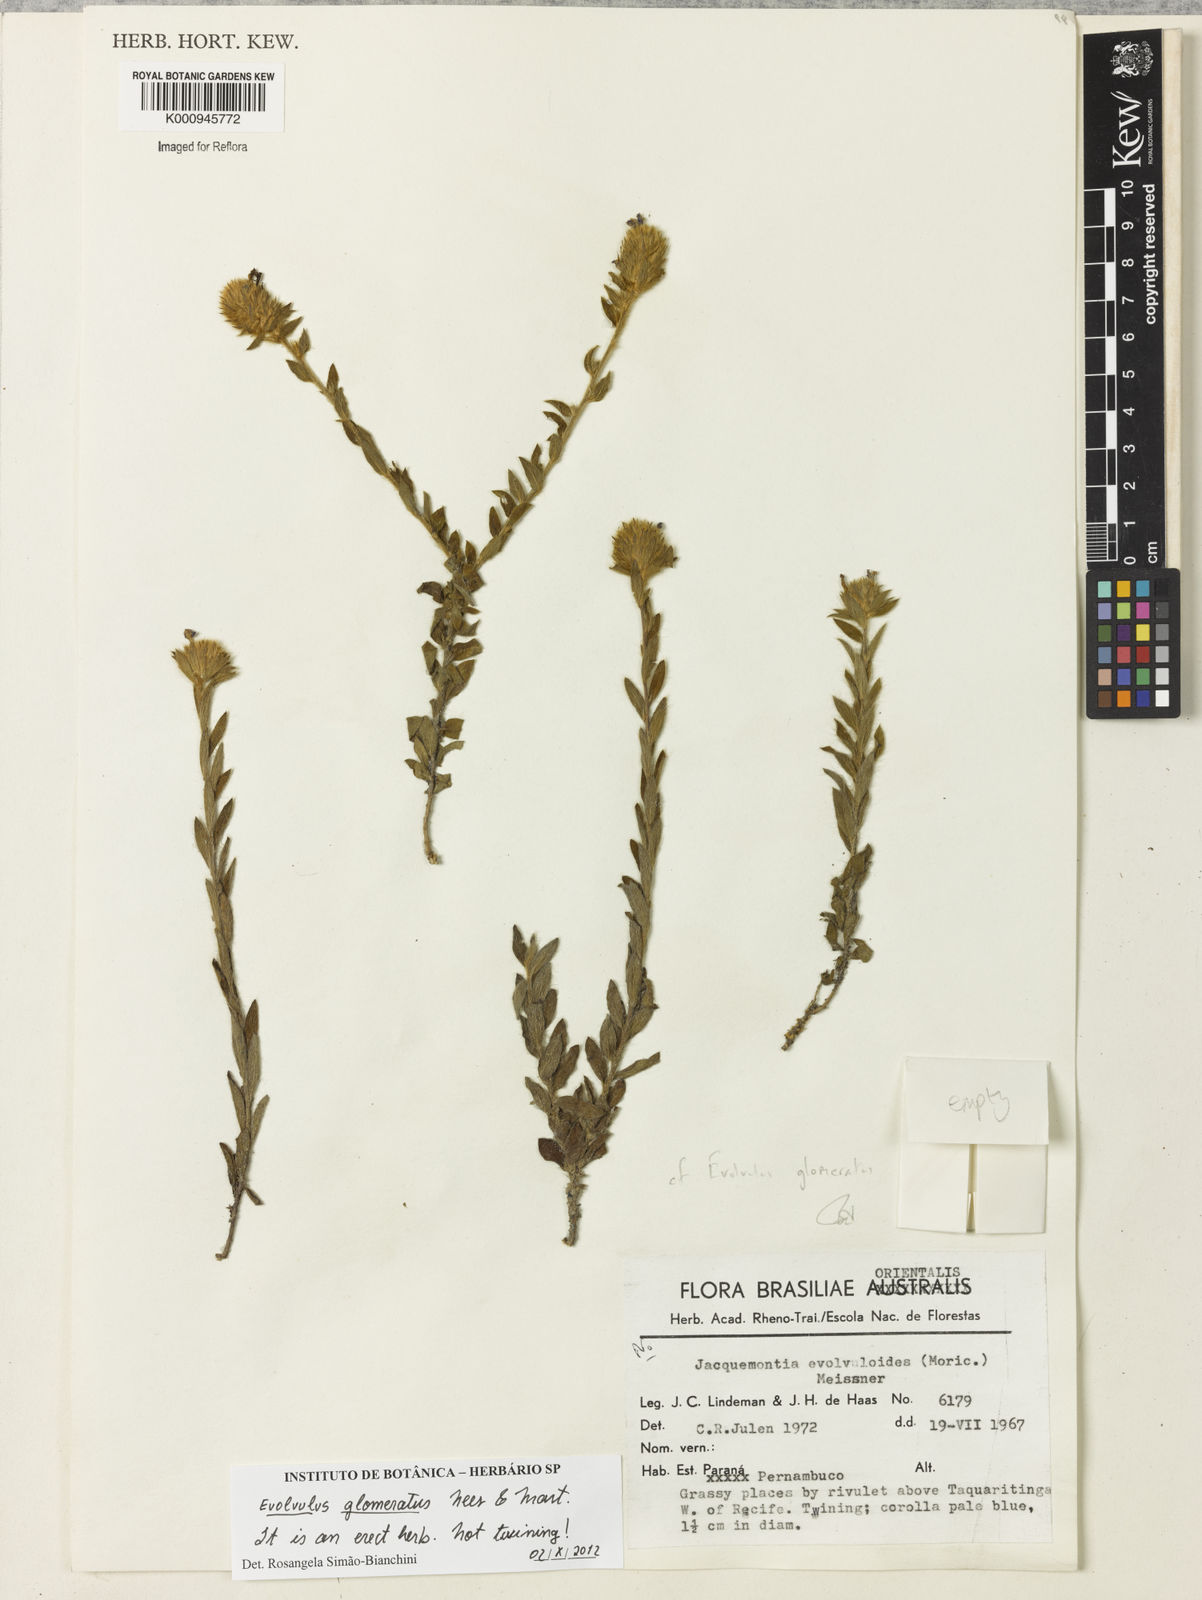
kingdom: Plantae
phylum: Tracheophyta
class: Magnoliopsida
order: Solanales
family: Convolvulaceae
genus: Evolvulus
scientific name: Evolvulus glomeratus
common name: Brazilian dwarf morning-glory
